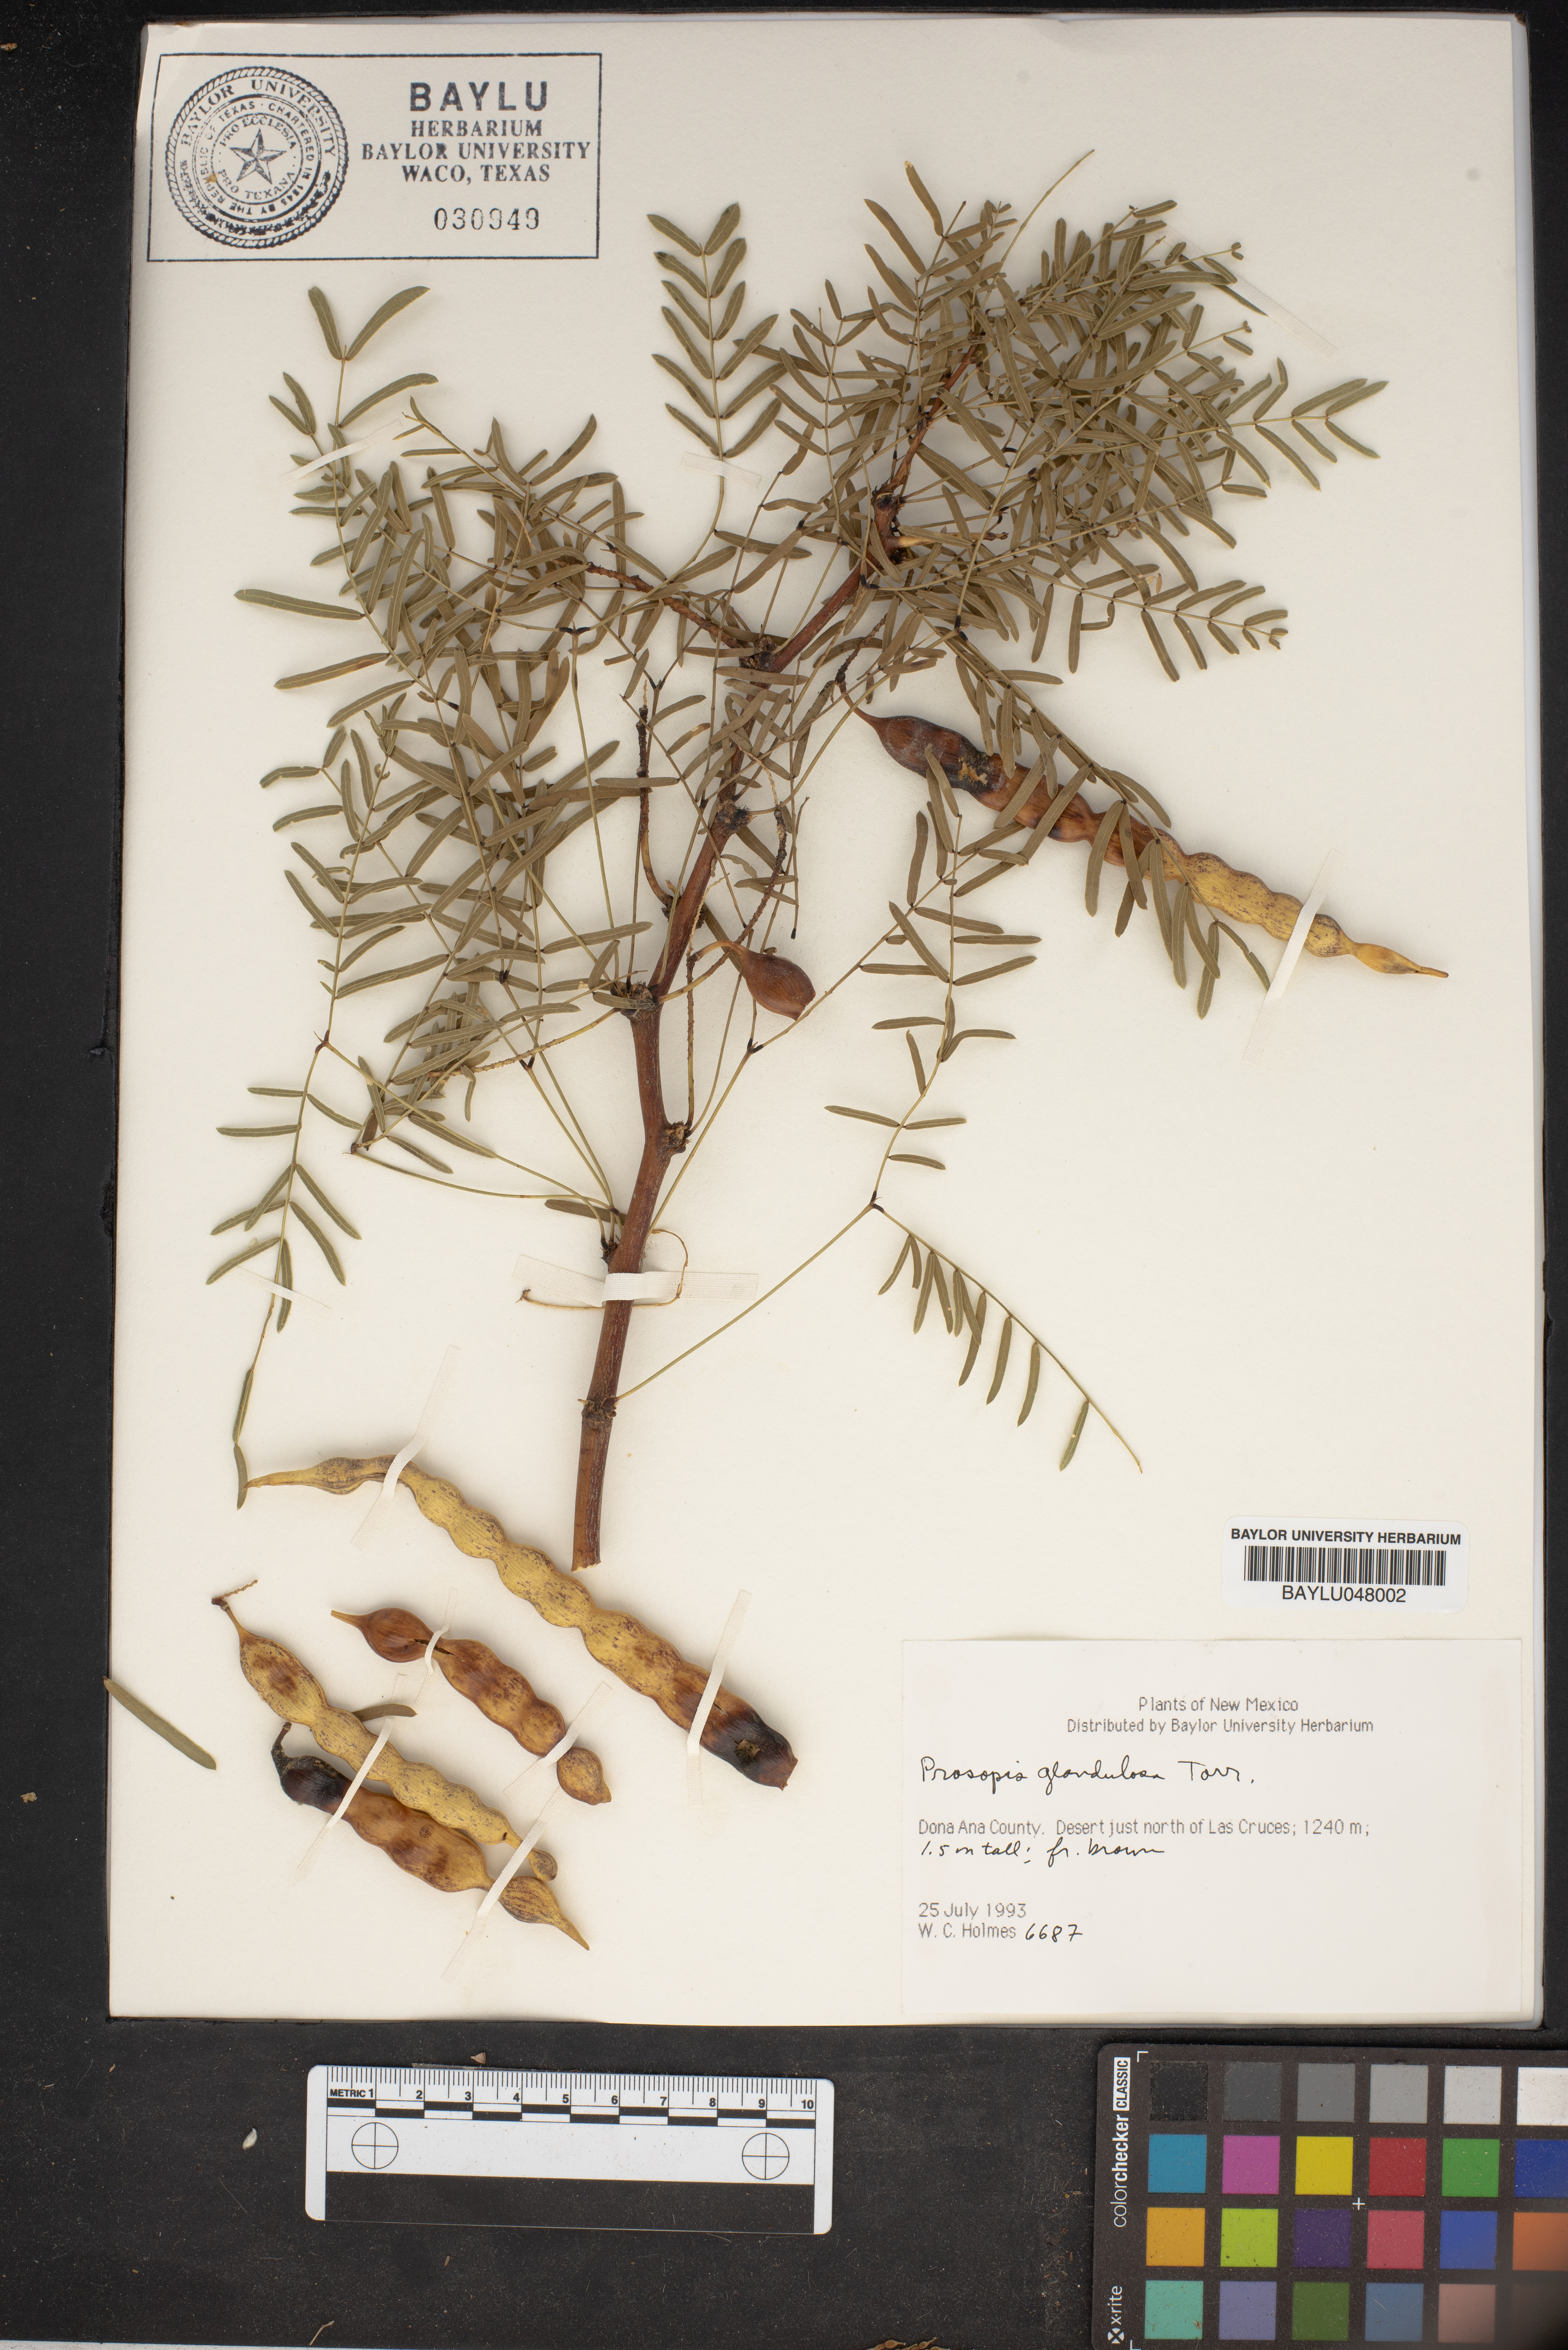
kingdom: Plantae
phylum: Tracheophyta
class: Magnoliopsida
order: Fabales
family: Fabaceae
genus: Prosopis
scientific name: Prosopis glandulosa
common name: Honey mesquite
